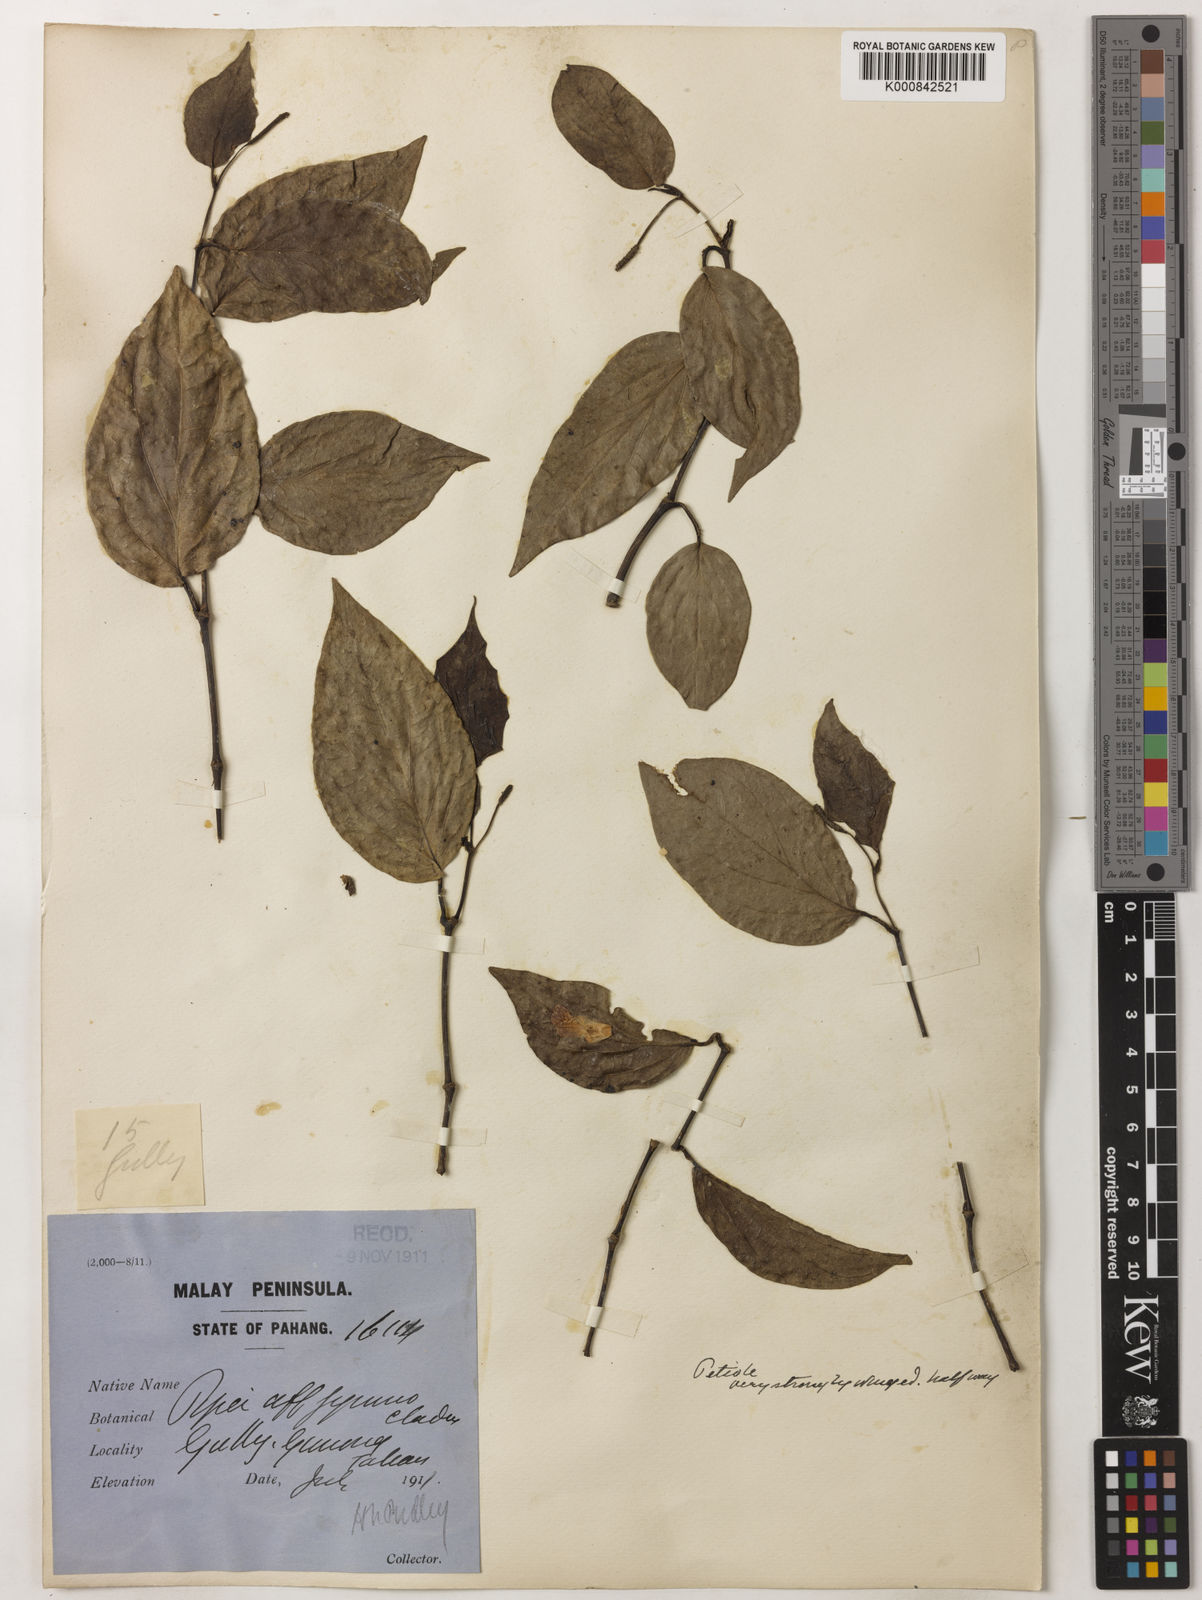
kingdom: Plantae
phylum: Tracheophyta
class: Magnoliopsida
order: Piperales
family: Piperaceae
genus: Piper
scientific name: Piper
